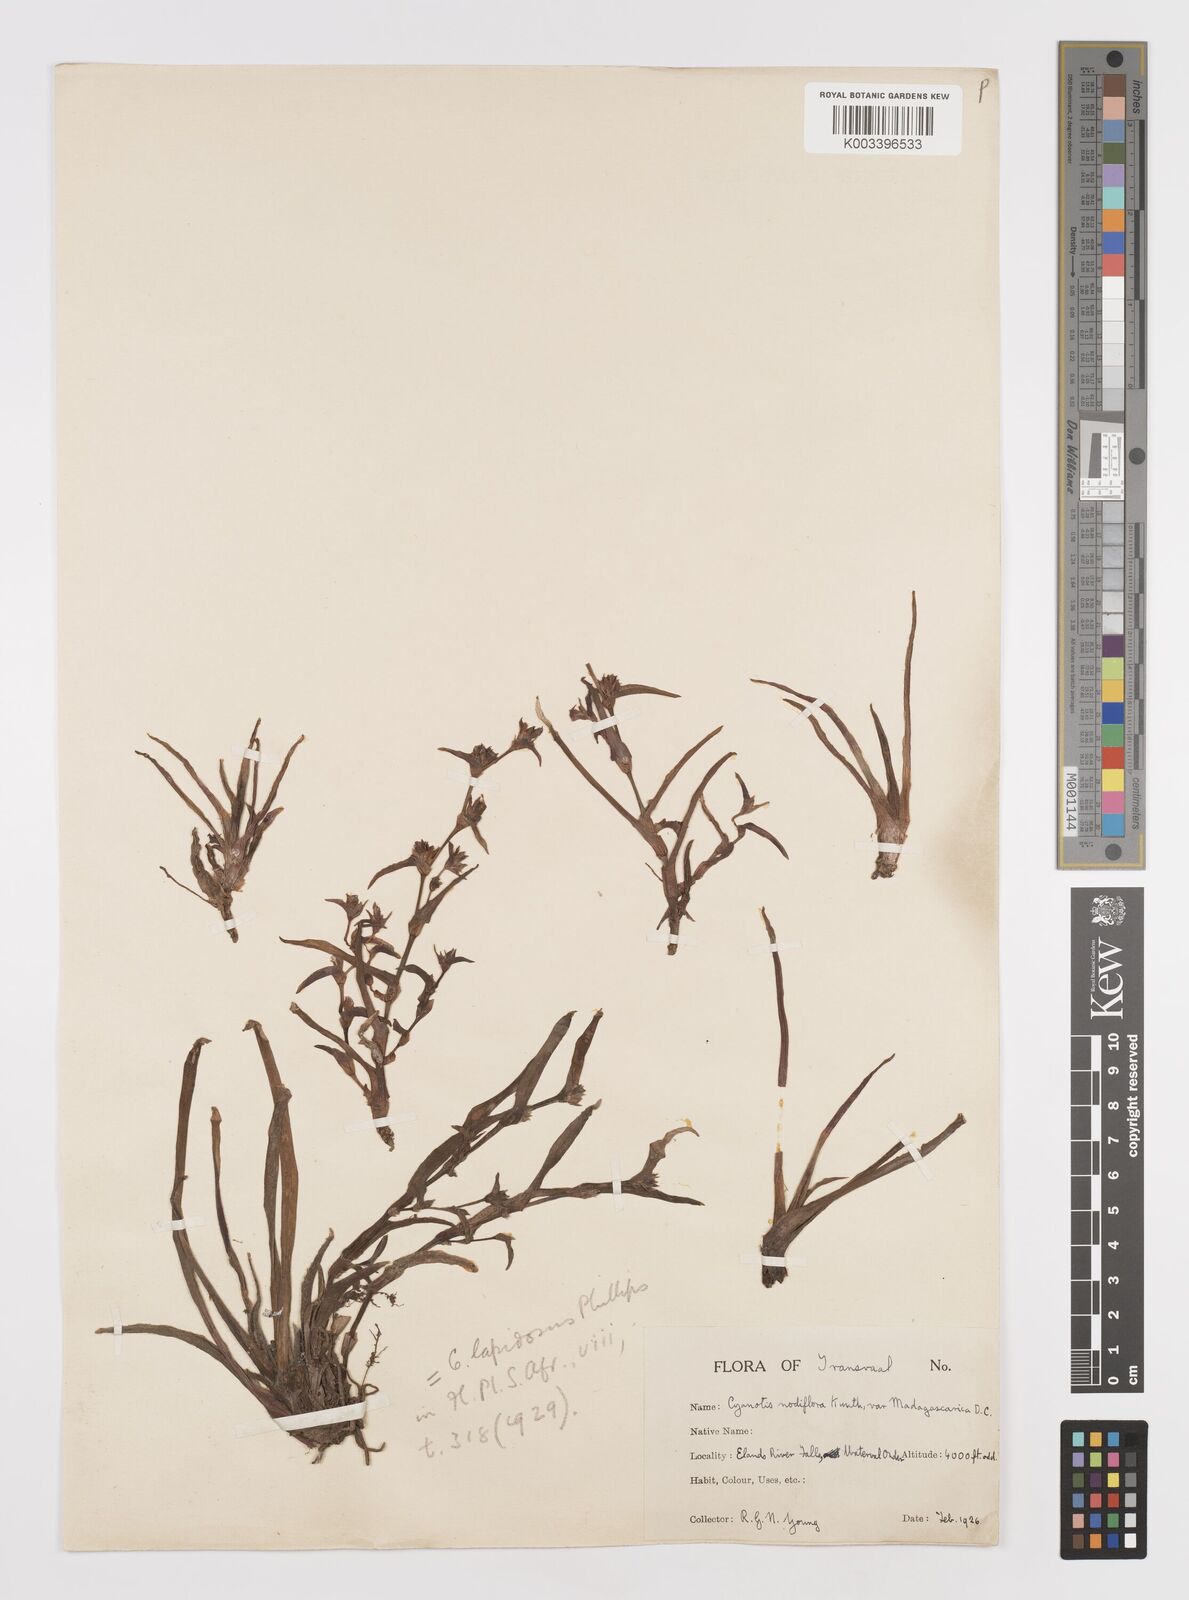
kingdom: Plantae
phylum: Tracheophyta
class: Liliopsida
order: Commelinales
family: Commelinaceae
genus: Cyanotis
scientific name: Cyanotis lapidosa
